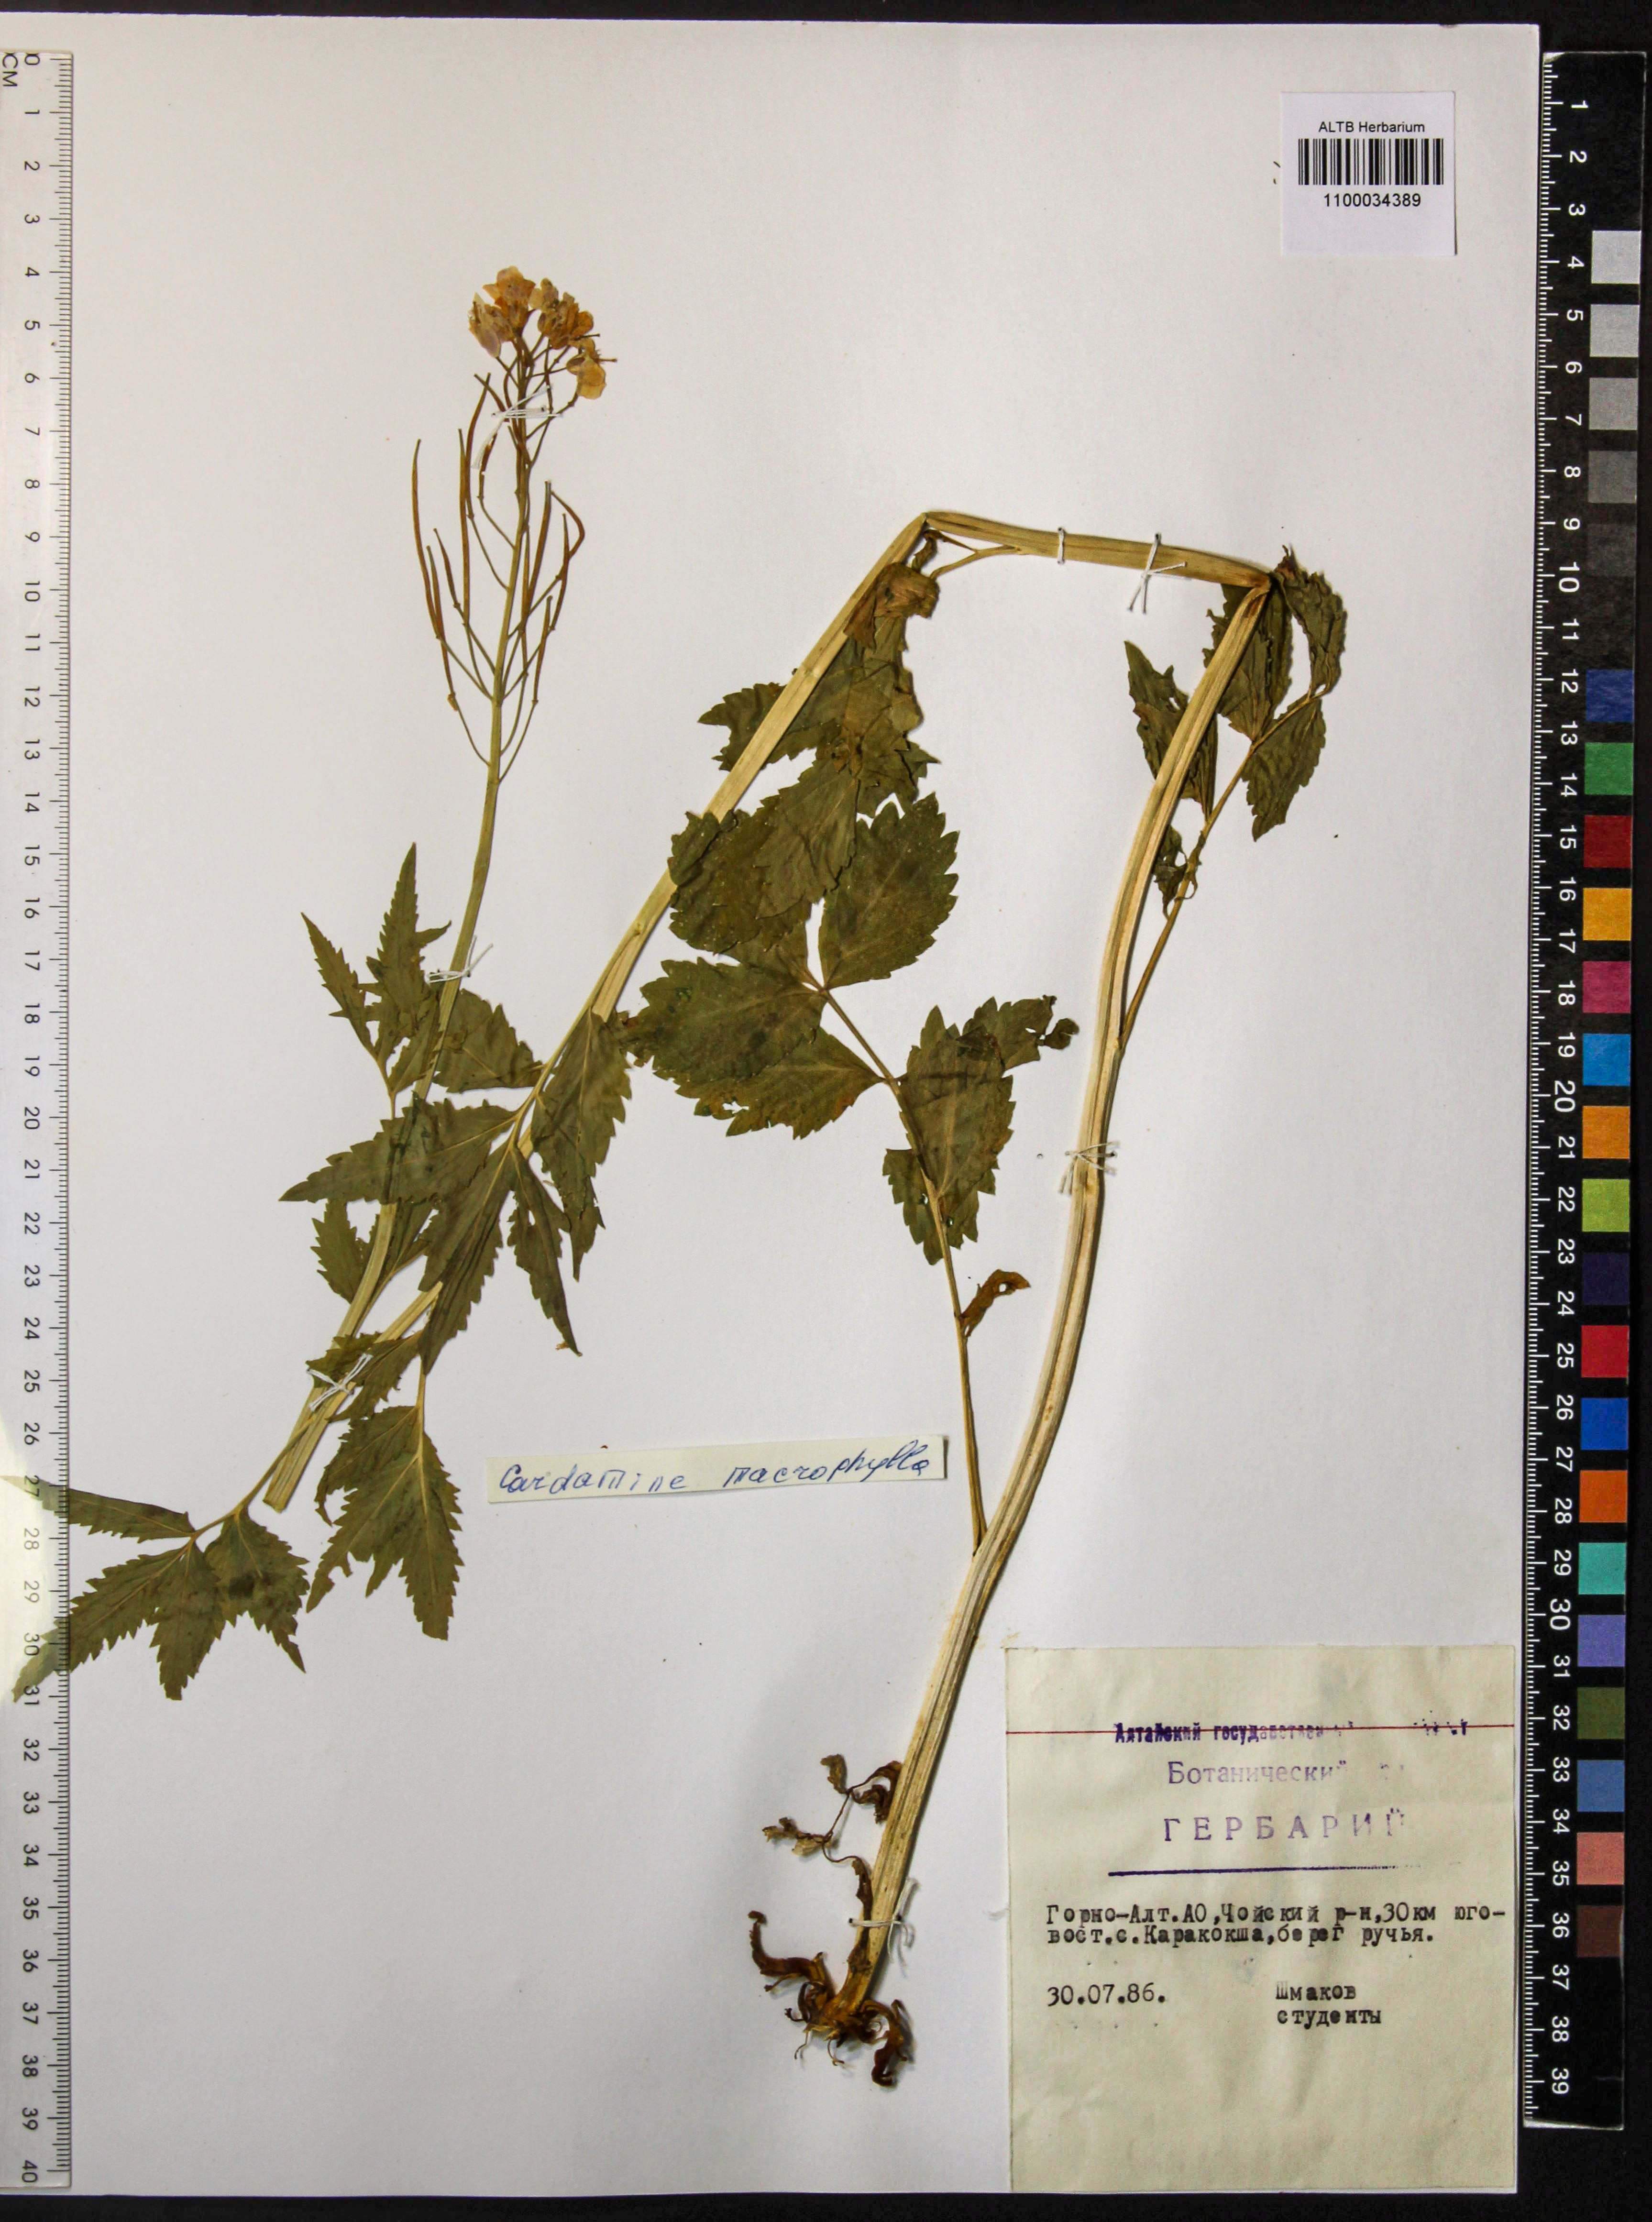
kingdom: Plantae
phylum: Tracheophyta
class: Magnoliopsida
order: Brassicales
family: Brassicaceae
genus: Cardamine
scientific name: Cardamine macrophylla
